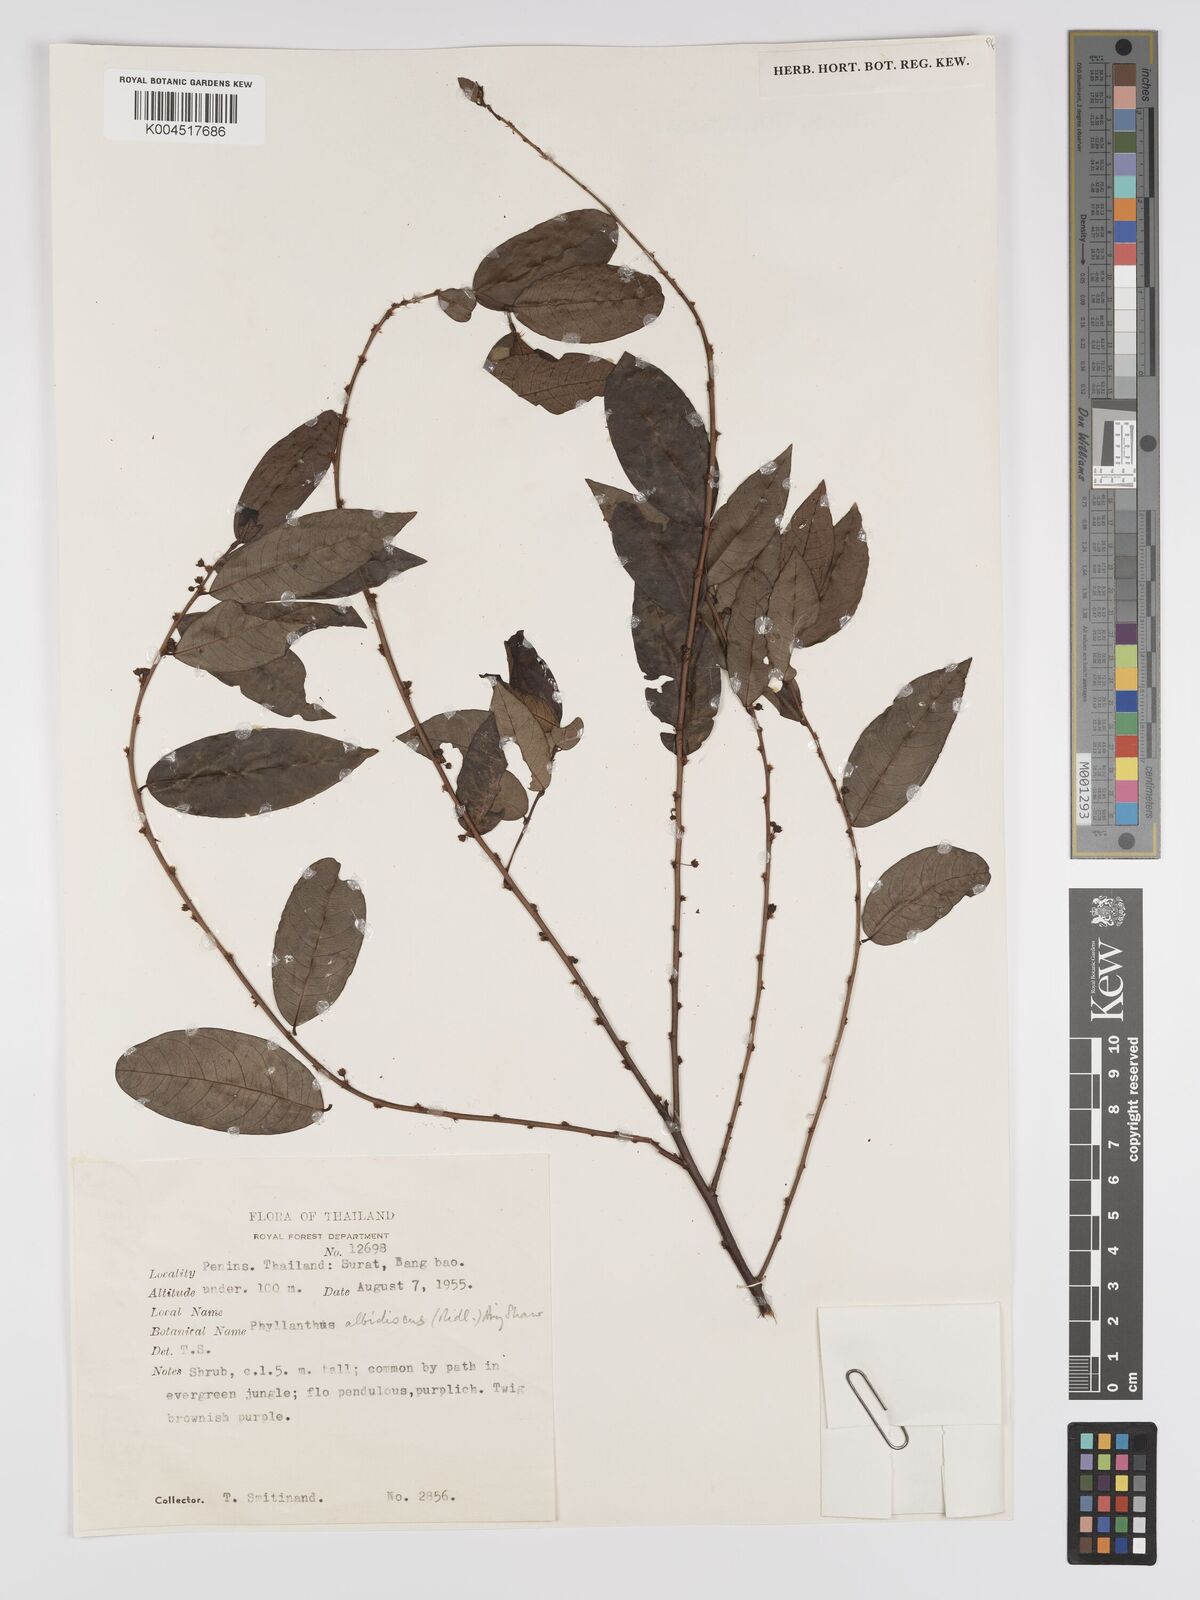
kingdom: Plantae
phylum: Tracheophyta
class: Magnoliopsida
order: Malpighiales
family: Phyllanthaceae
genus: Phyllanthus
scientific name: Phyllanthus albidiscus
